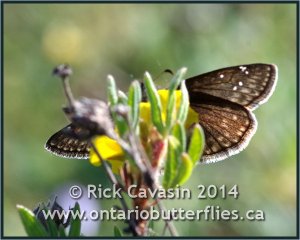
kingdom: Animalia
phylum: Arthropoda
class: Insecta
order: Lepidoptera
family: Hesperiidae
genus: Gesta
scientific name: Gesta
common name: Persius Duskywing
